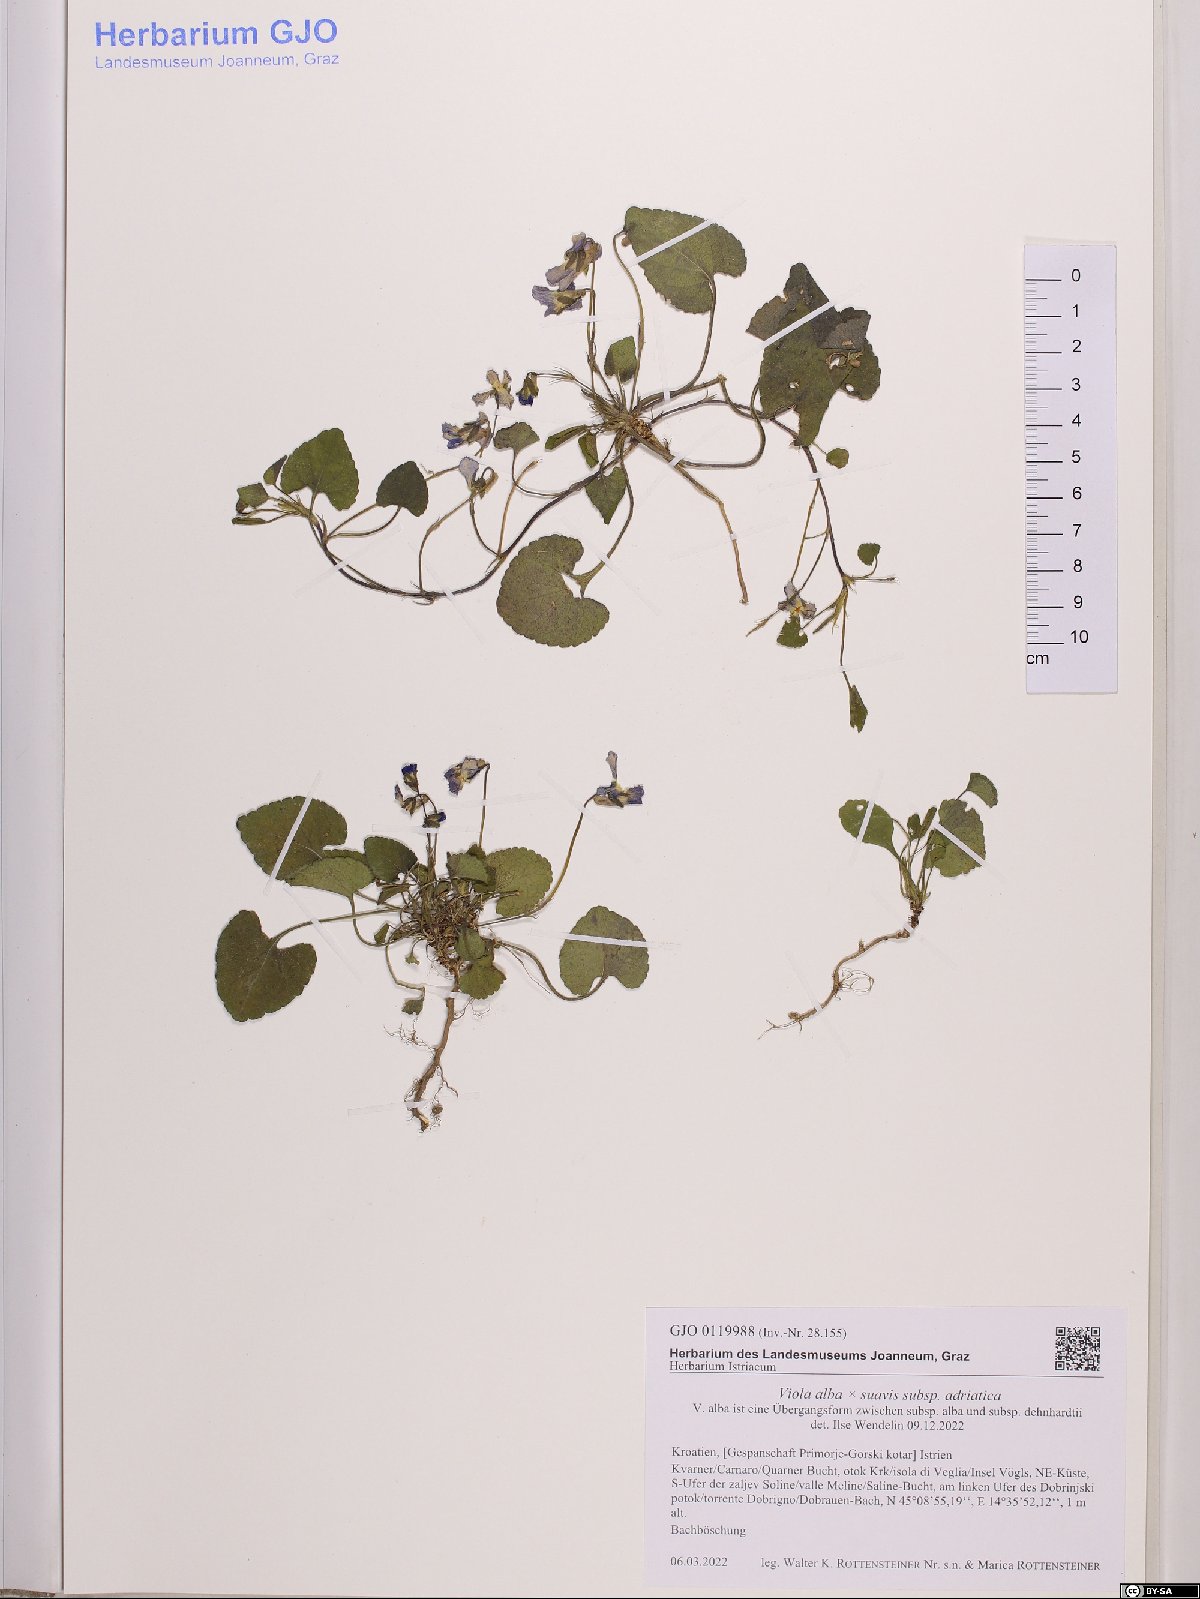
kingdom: Plantae
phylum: Tracheophyta
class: Magnoliopsida
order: Malpighiales
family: Violaceae
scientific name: Violaceae
